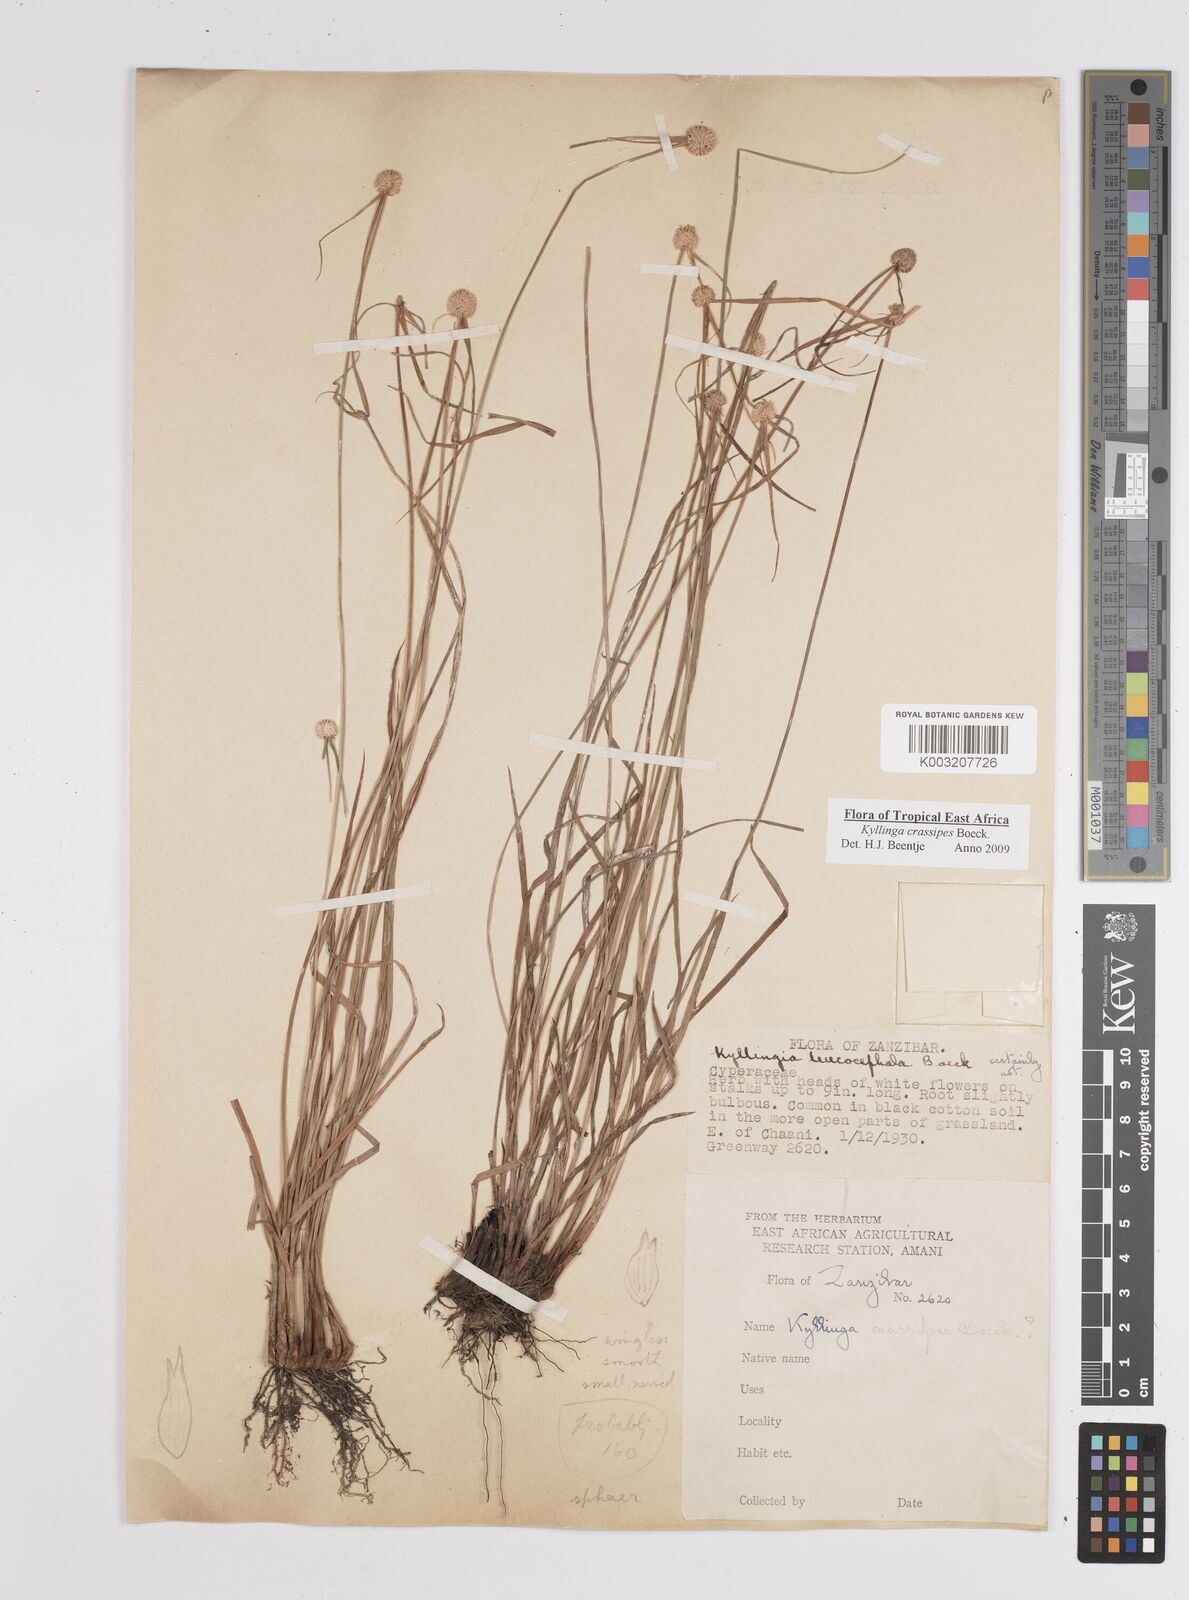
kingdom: Plantae
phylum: Tracheophyta
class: Liliopsida
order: Poales
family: Cyperaceae
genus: Cyperus
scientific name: Cyperus
